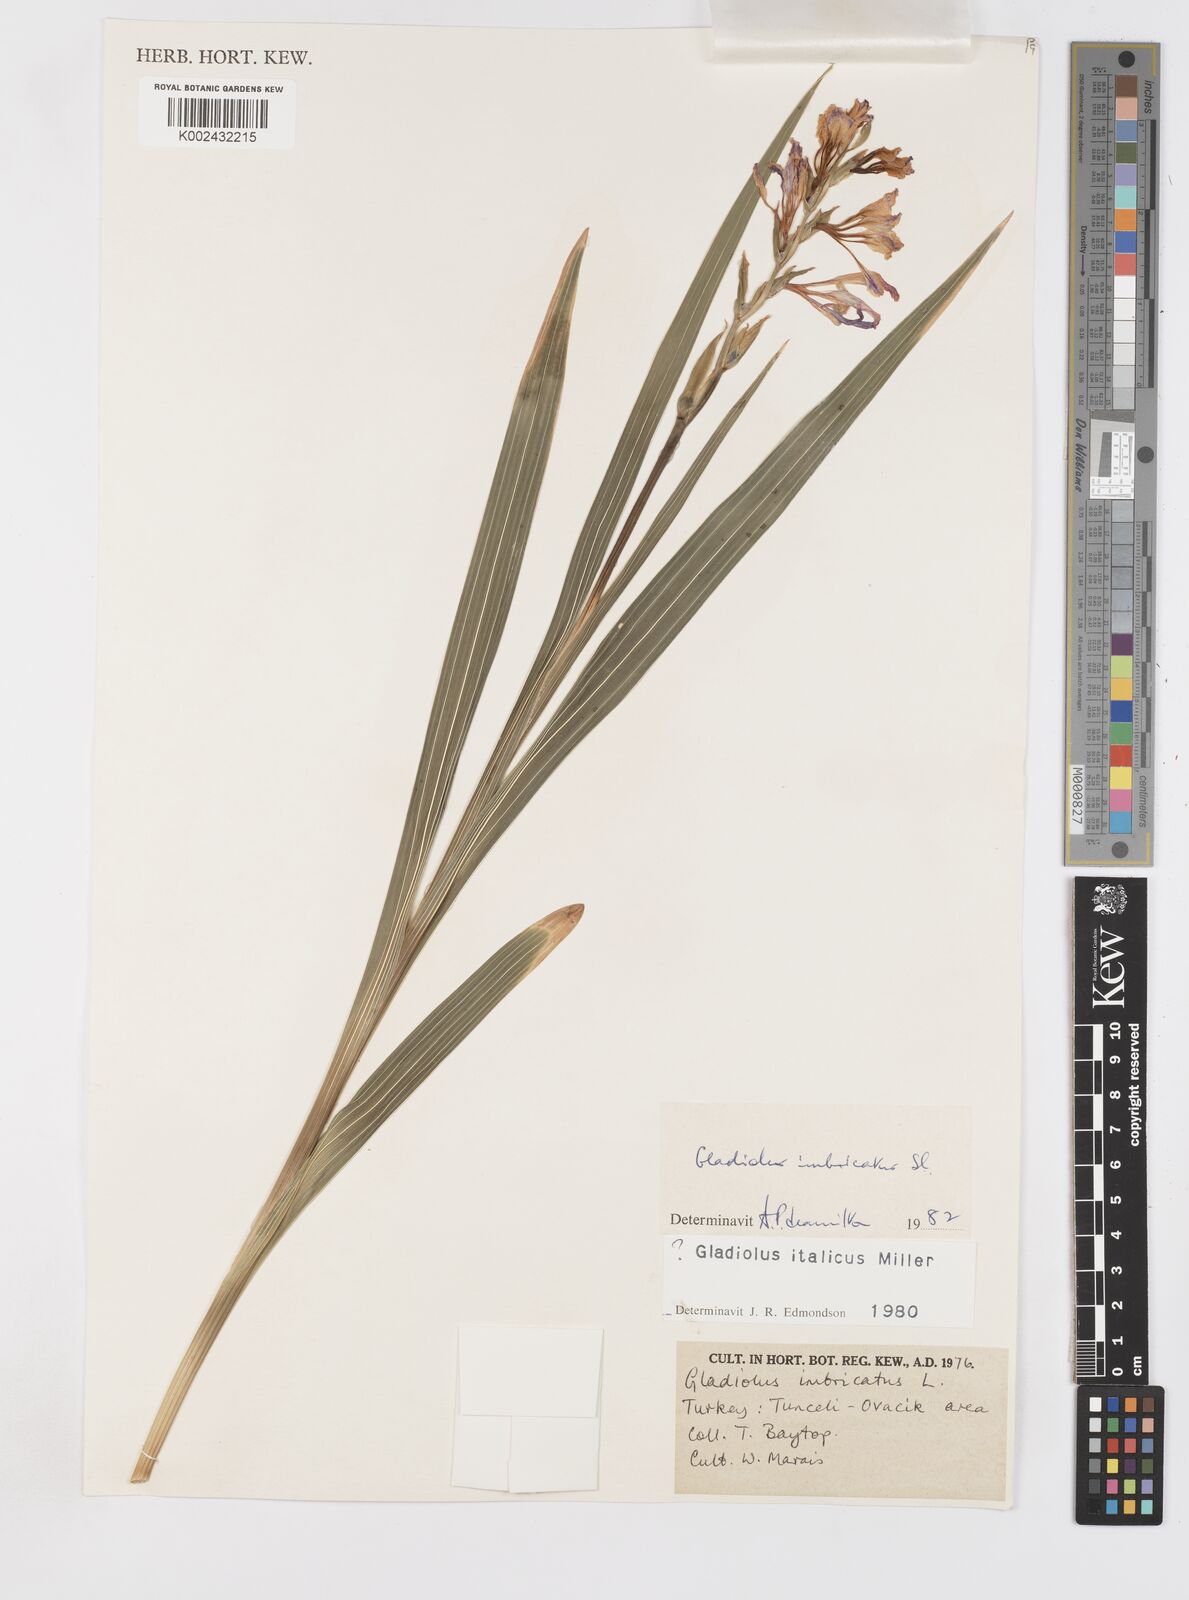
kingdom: Plantae
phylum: Tracheophyta
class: Liliopsida
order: Asparagales
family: Iridaceae
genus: Gladiolus
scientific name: Gladiolus italicus
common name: Field gladiolus
